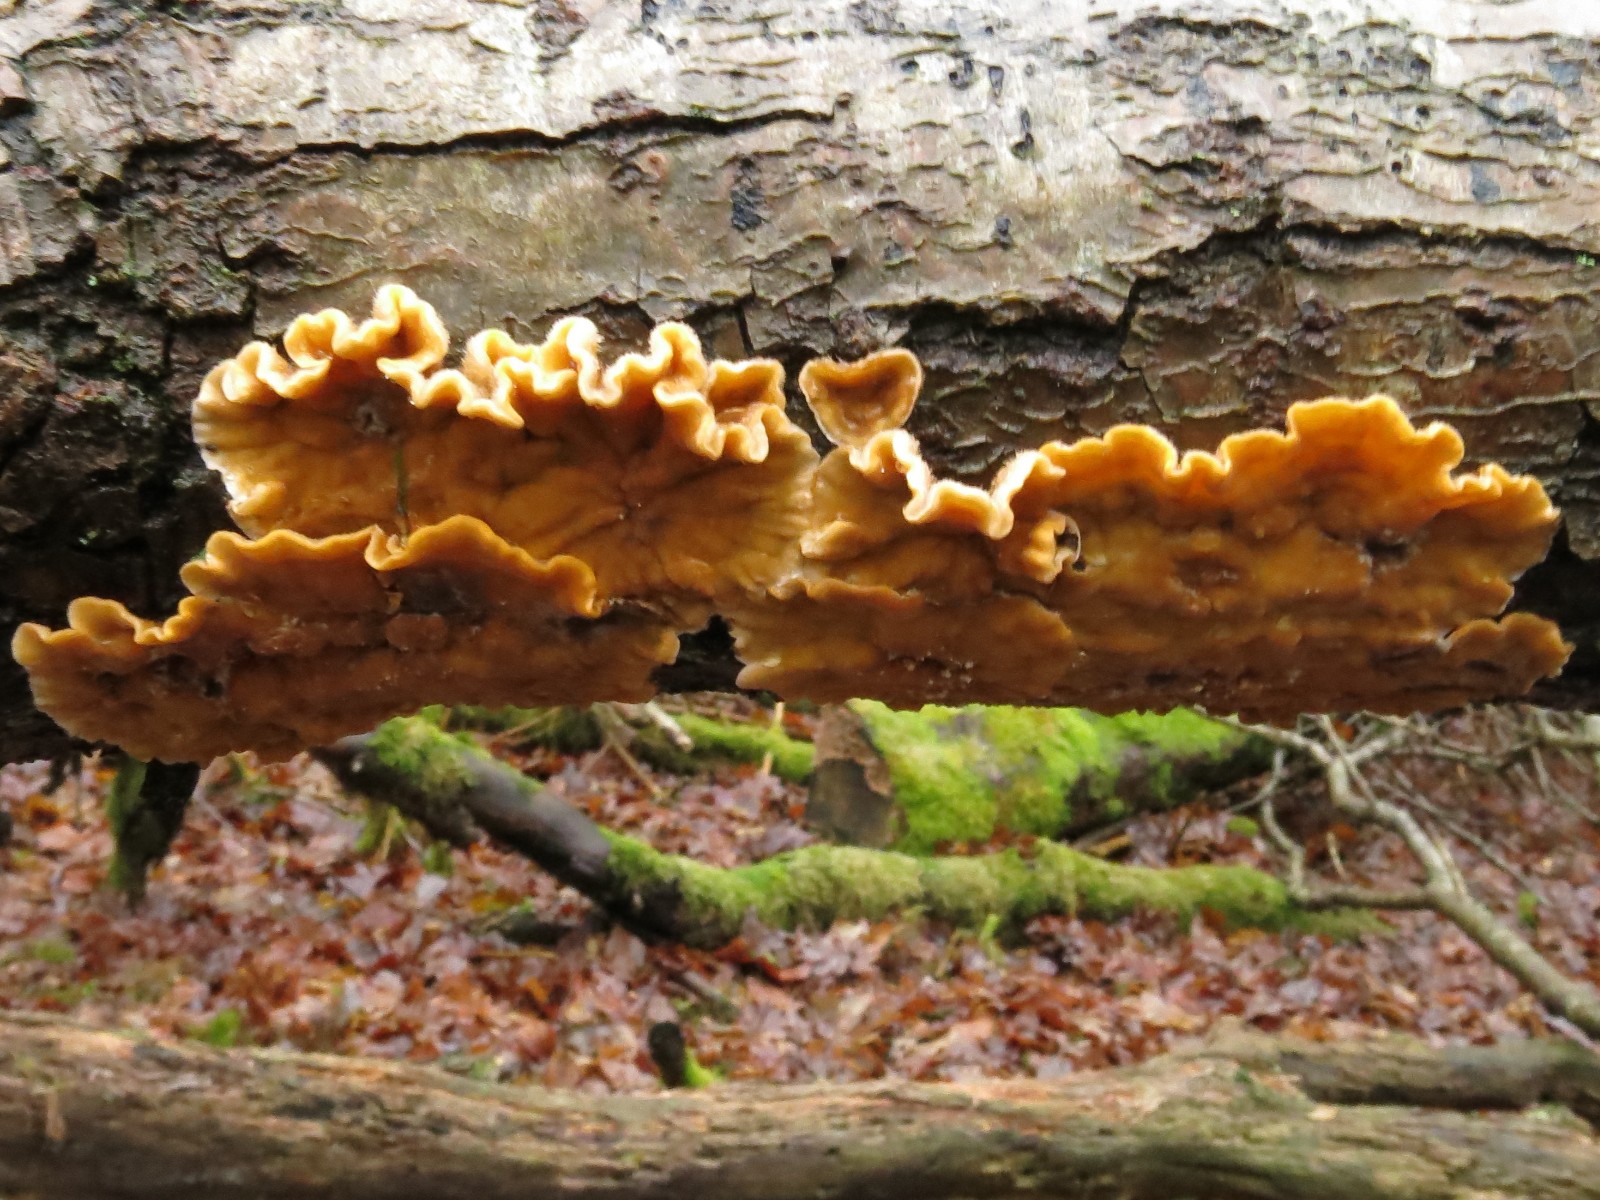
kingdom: Fungi
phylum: Basidiomycota
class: Agaricomycetes
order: Russulales
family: Stereaceae
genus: Stereum
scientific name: Stereum hirsutum
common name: håret lædersvamp
